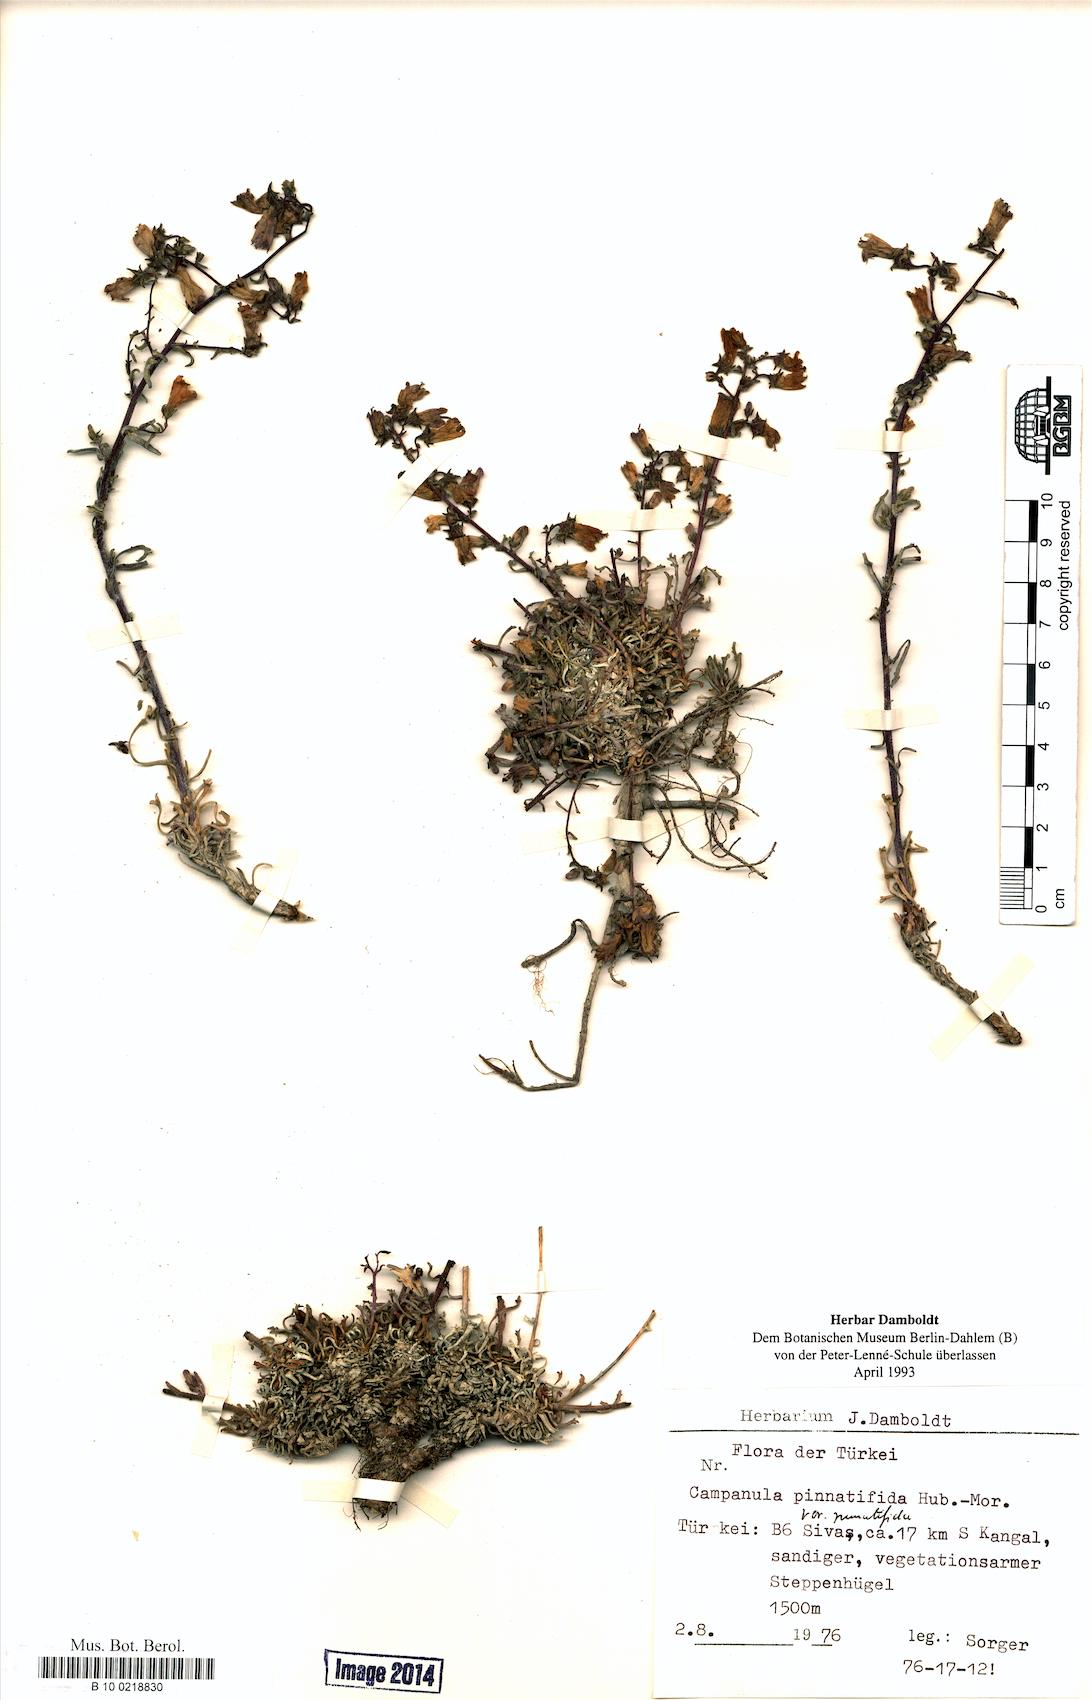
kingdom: Plantae
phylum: Tracheophyta
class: Magnoliopsida
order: Asterales
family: Campanulaceae
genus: Campanula
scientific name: Campanula pinnatifida
